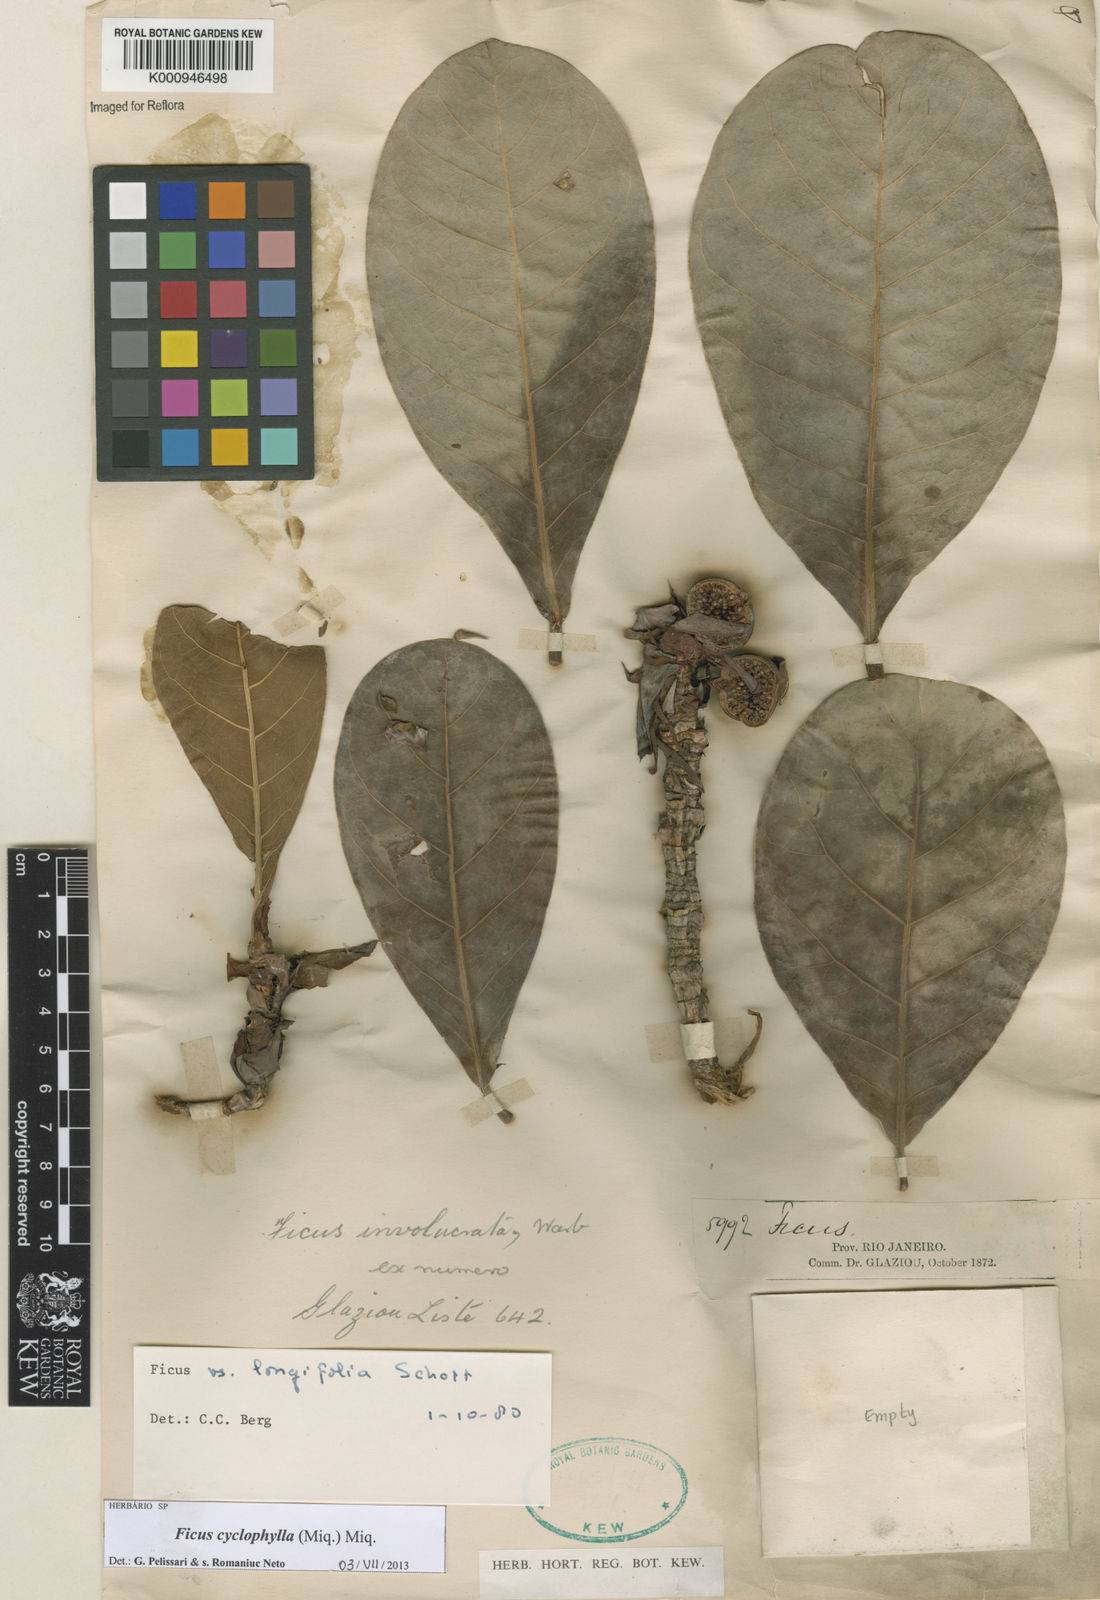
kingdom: Plantae
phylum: Tracheophyta
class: Magnoliopsida
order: Rosales
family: Moraceae
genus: Ficus
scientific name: Ficus cyclophylla
